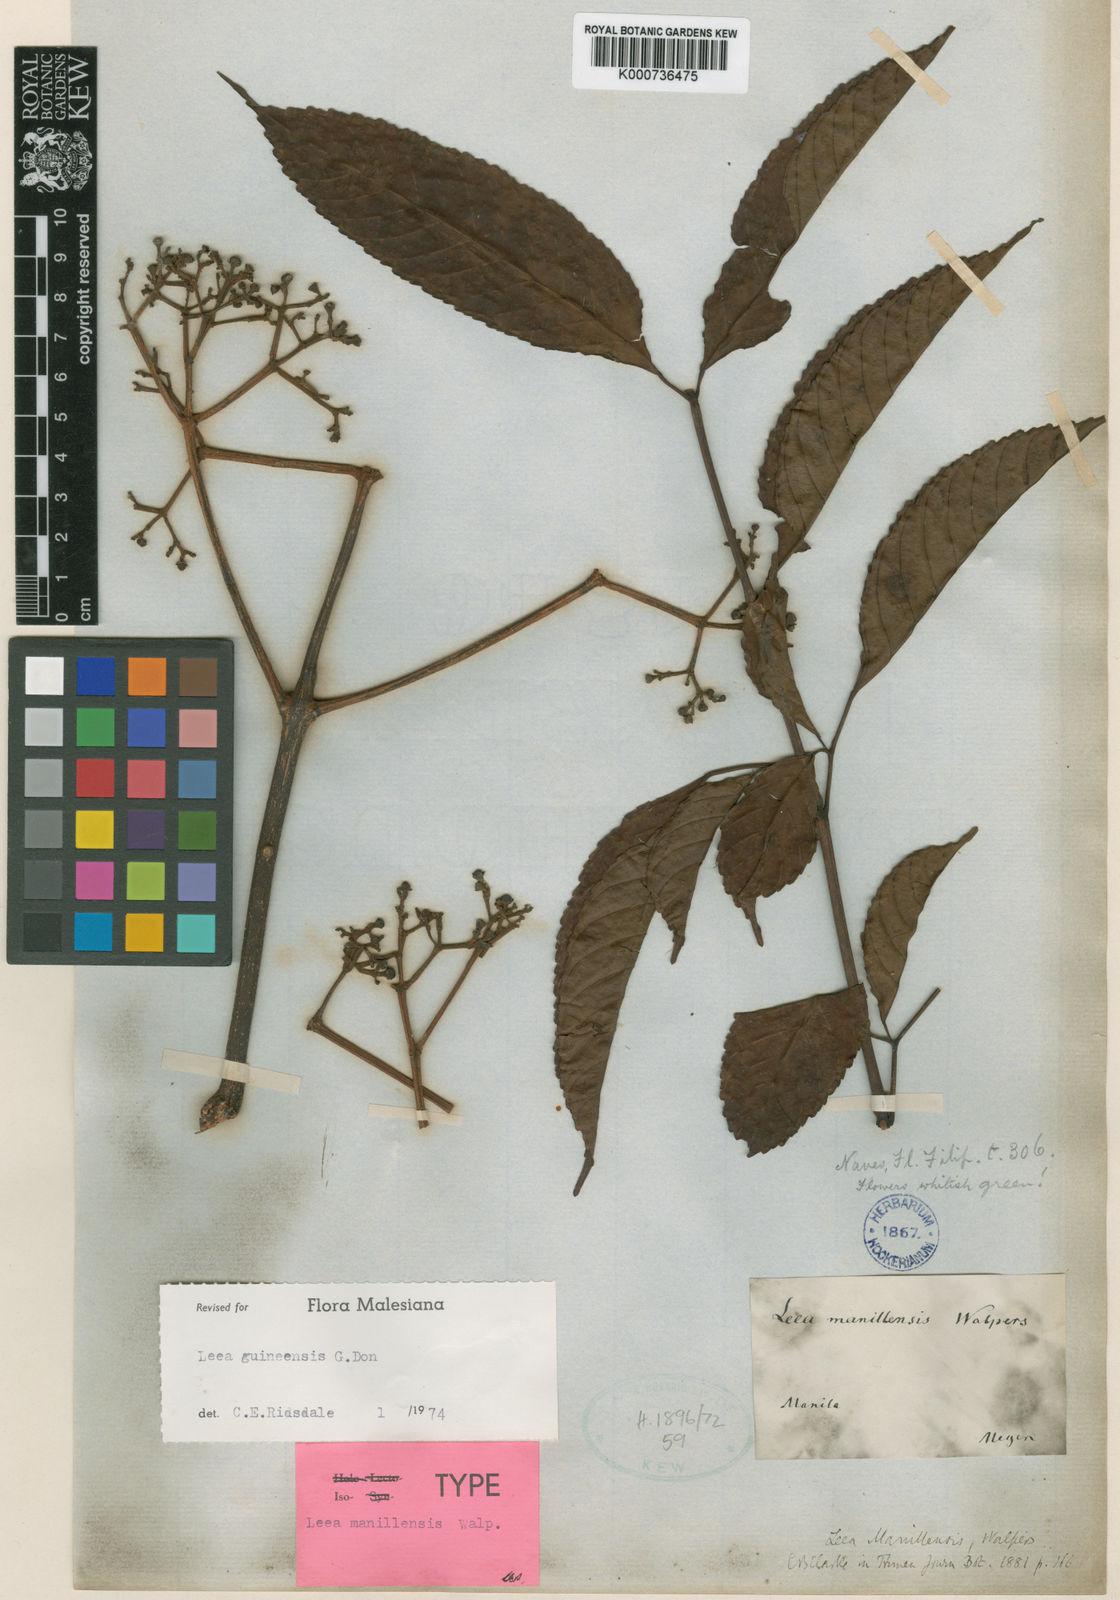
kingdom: Plantae
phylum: Tracheophyta
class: Magnoliopsida
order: Vitales
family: Vitaceae
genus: Leea
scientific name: Leea guineensis
